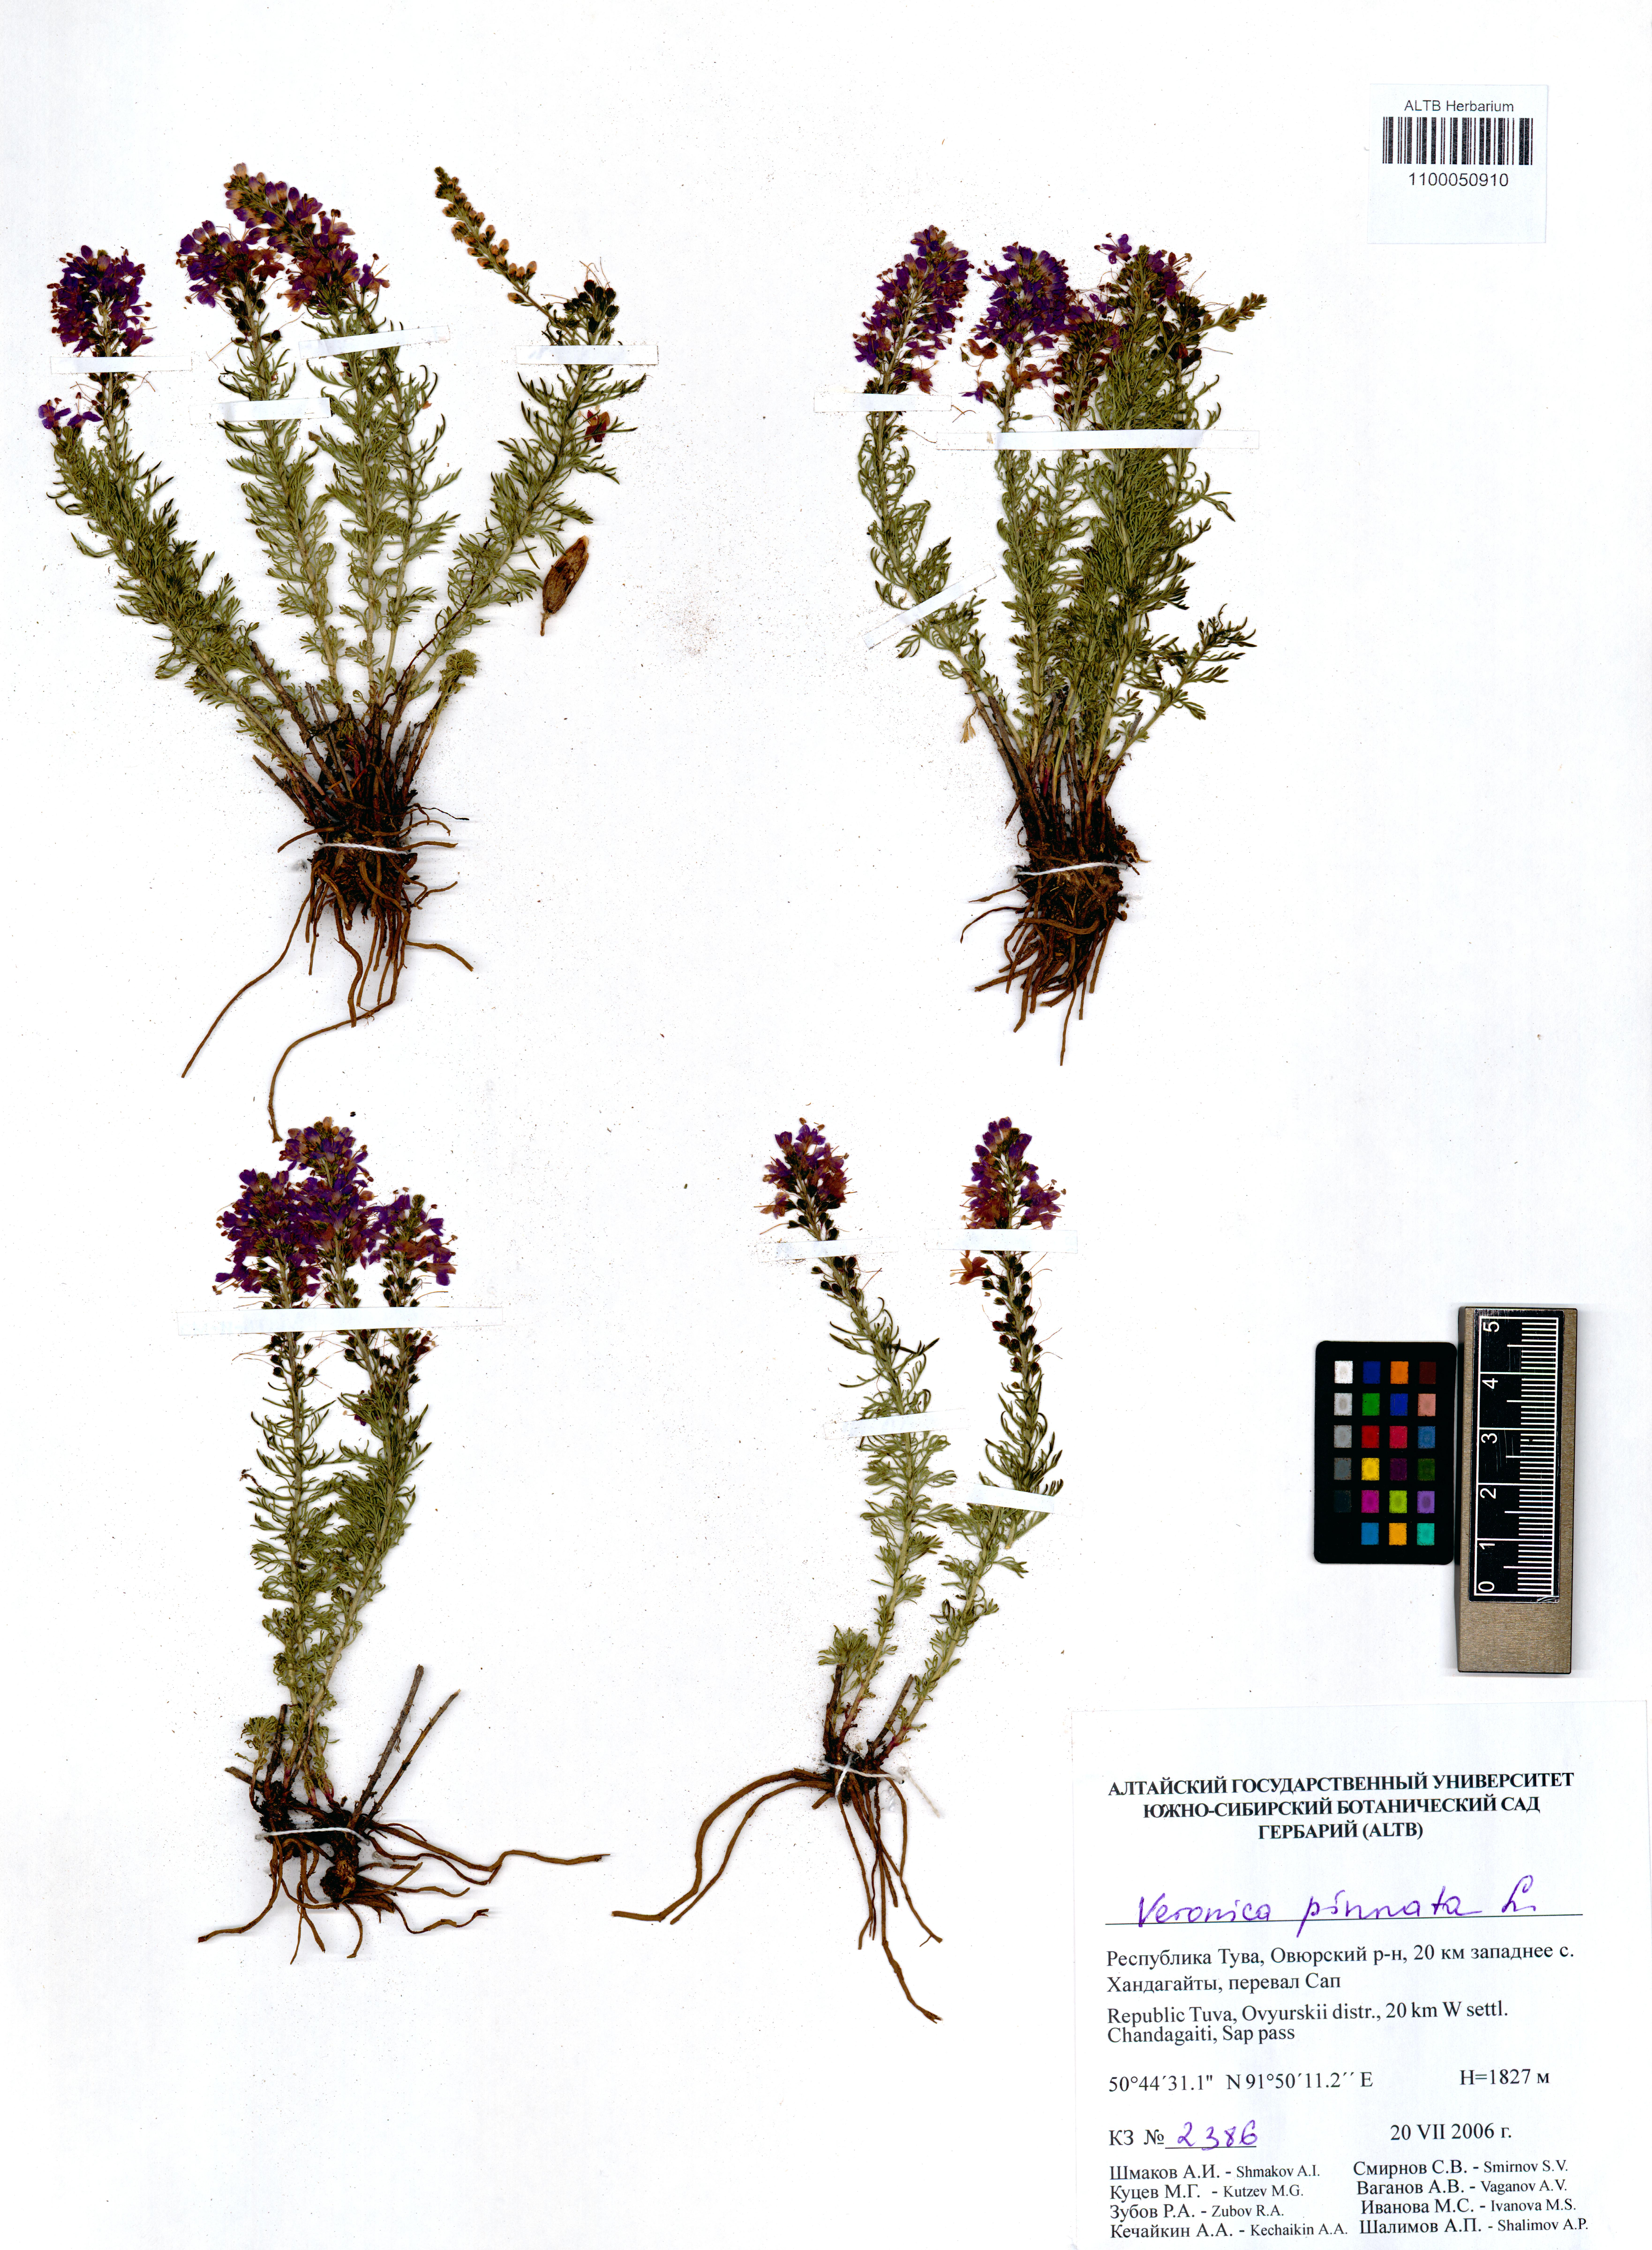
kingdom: Plantae
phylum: Tracheophyta
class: Magnoliopsida
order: Lamiales
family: Plantaginaceae
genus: Veronica
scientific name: Veronica pinnata
